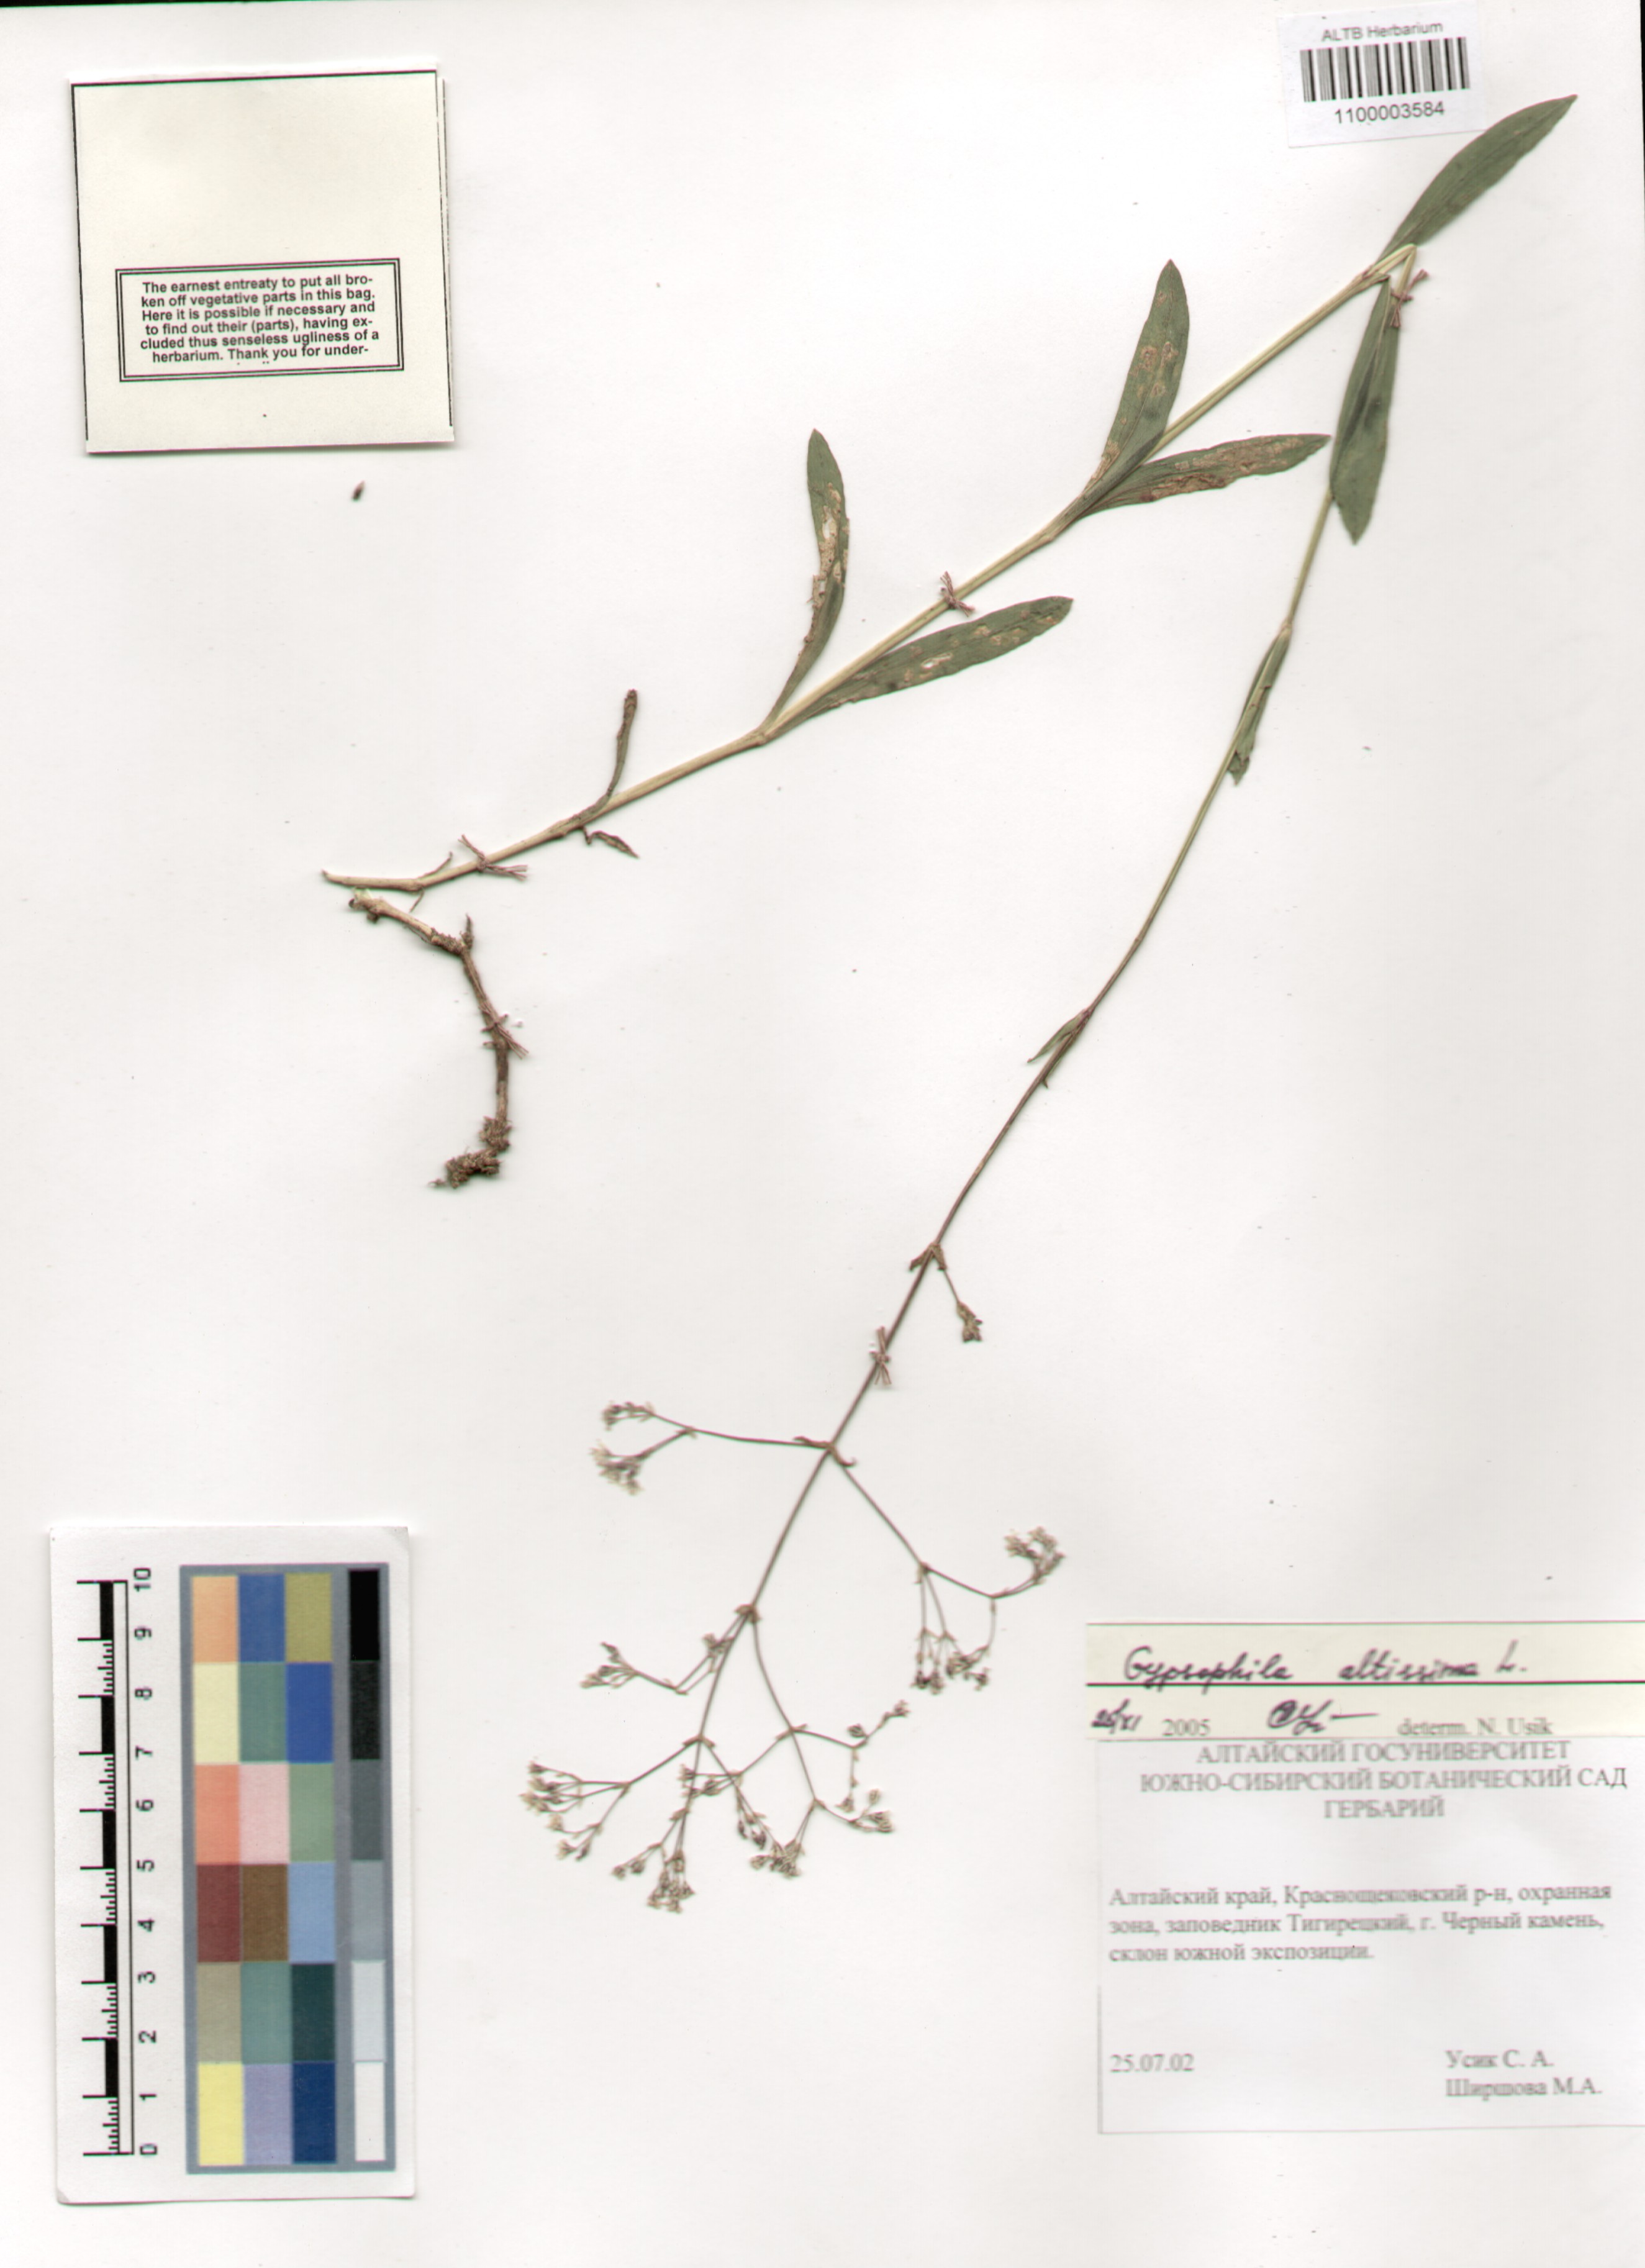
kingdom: Plantae
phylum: Tracheophyta
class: Magnoliopsida
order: Caryophyllales
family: Caryophyllaceae
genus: Gypsophila
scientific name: Gypsophila altissima
